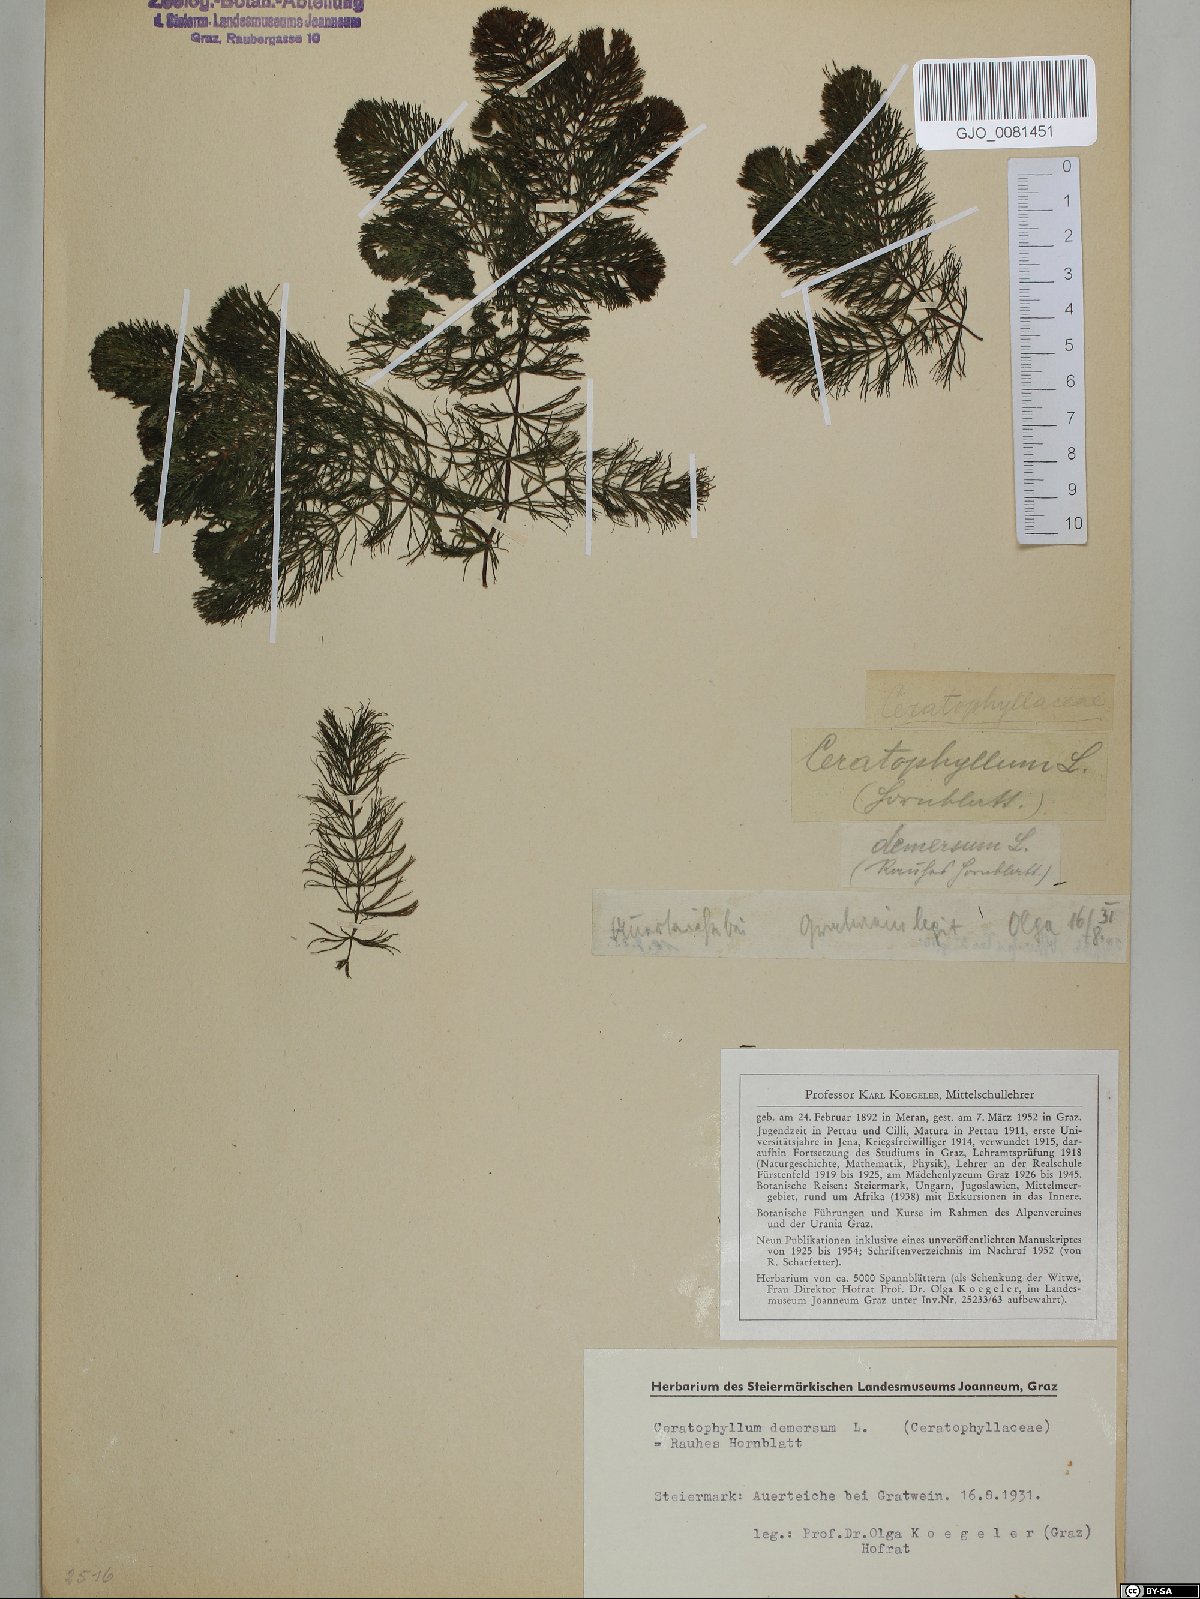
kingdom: Plantae
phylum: Tracheophyta
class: Magnoliopsida
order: Ceratophyllales
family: Ceratophyllaceae
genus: Ceratophyllum
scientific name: Ceratophyllum demersum
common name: Rigid hornwort
